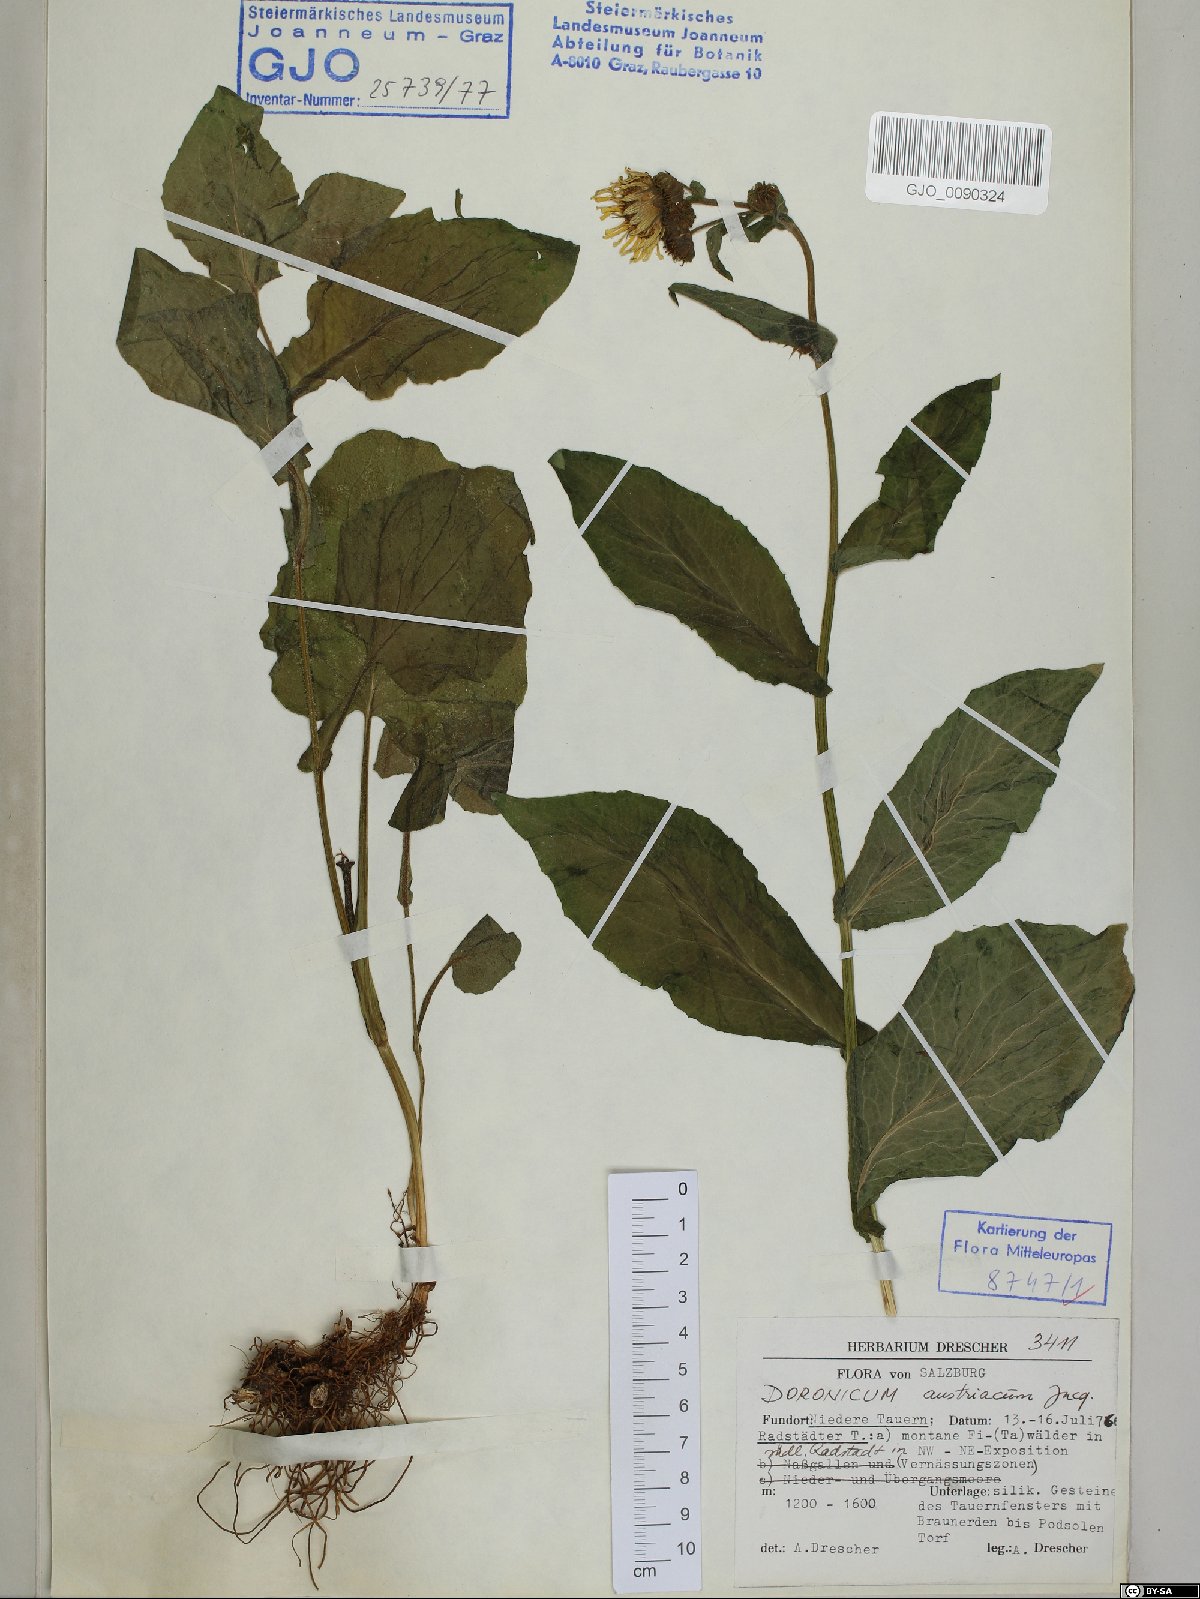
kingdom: Plantae
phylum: Tracheophyta
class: Magnoliopsida
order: Asterales
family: Asteraceae
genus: Doronicum
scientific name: Doronicum austriacum
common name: Austrian leopard's-bane
